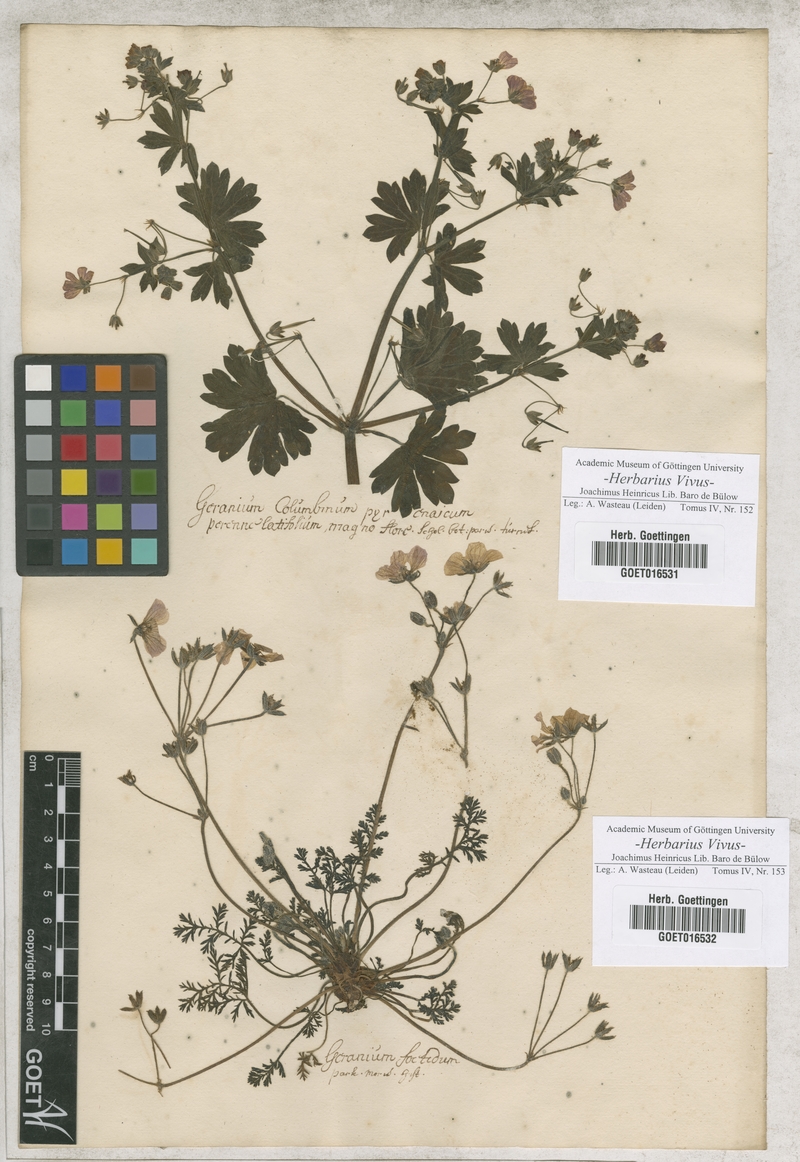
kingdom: Plantae
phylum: Tracheophyta
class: Magnoliopsida
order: Geraniales
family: Geraniaceae
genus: Geranium
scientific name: Geranium columbinum
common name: Long-stalked crane's-bill
